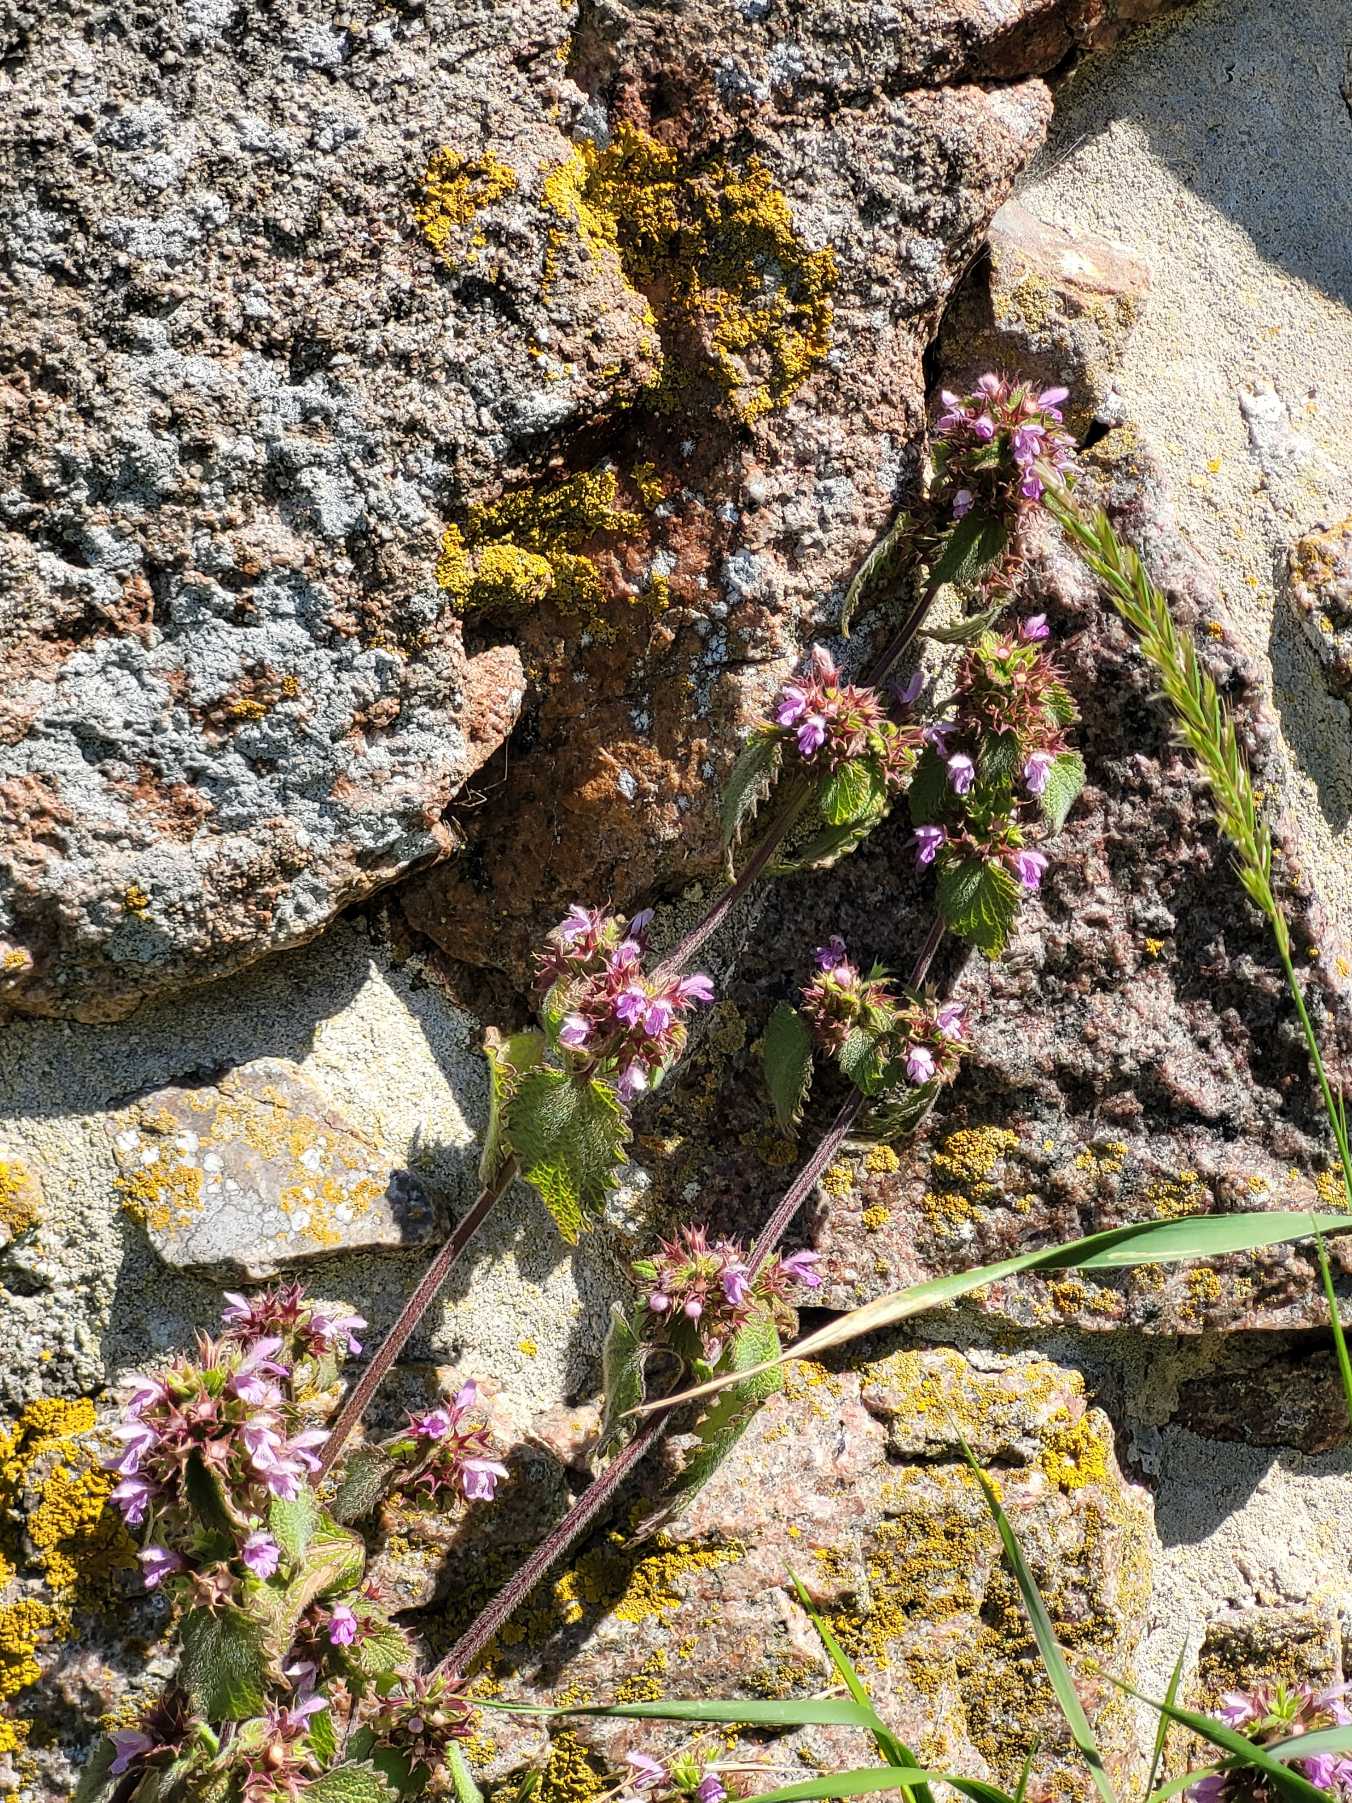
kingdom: Plantae
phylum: Tracheophyta
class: Magnoliopsida
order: Lamiales
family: Lamiaceae
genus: Ballota
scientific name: Ballota nigra
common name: Rød tandbæger
